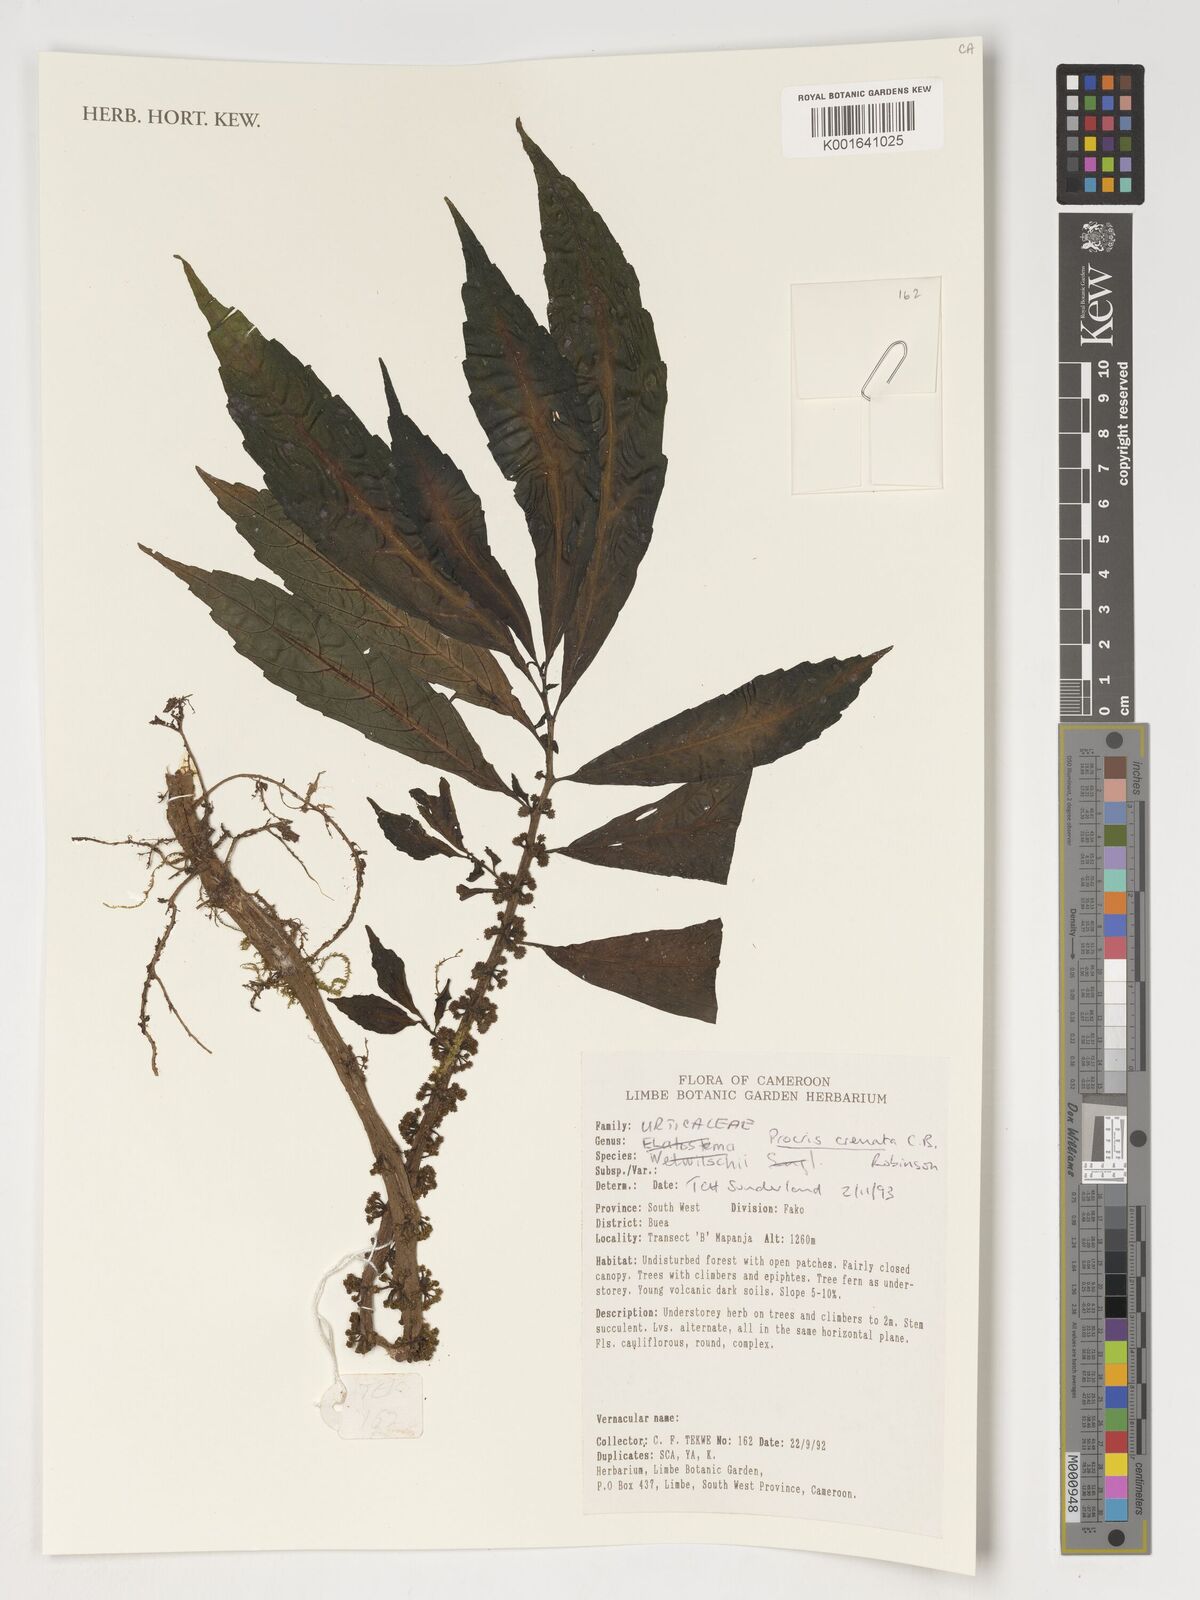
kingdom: Plantae
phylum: Tracheophyta
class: Magnoliopsida
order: Rosales
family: Urticaceae
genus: Procris
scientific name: Procris crenata
